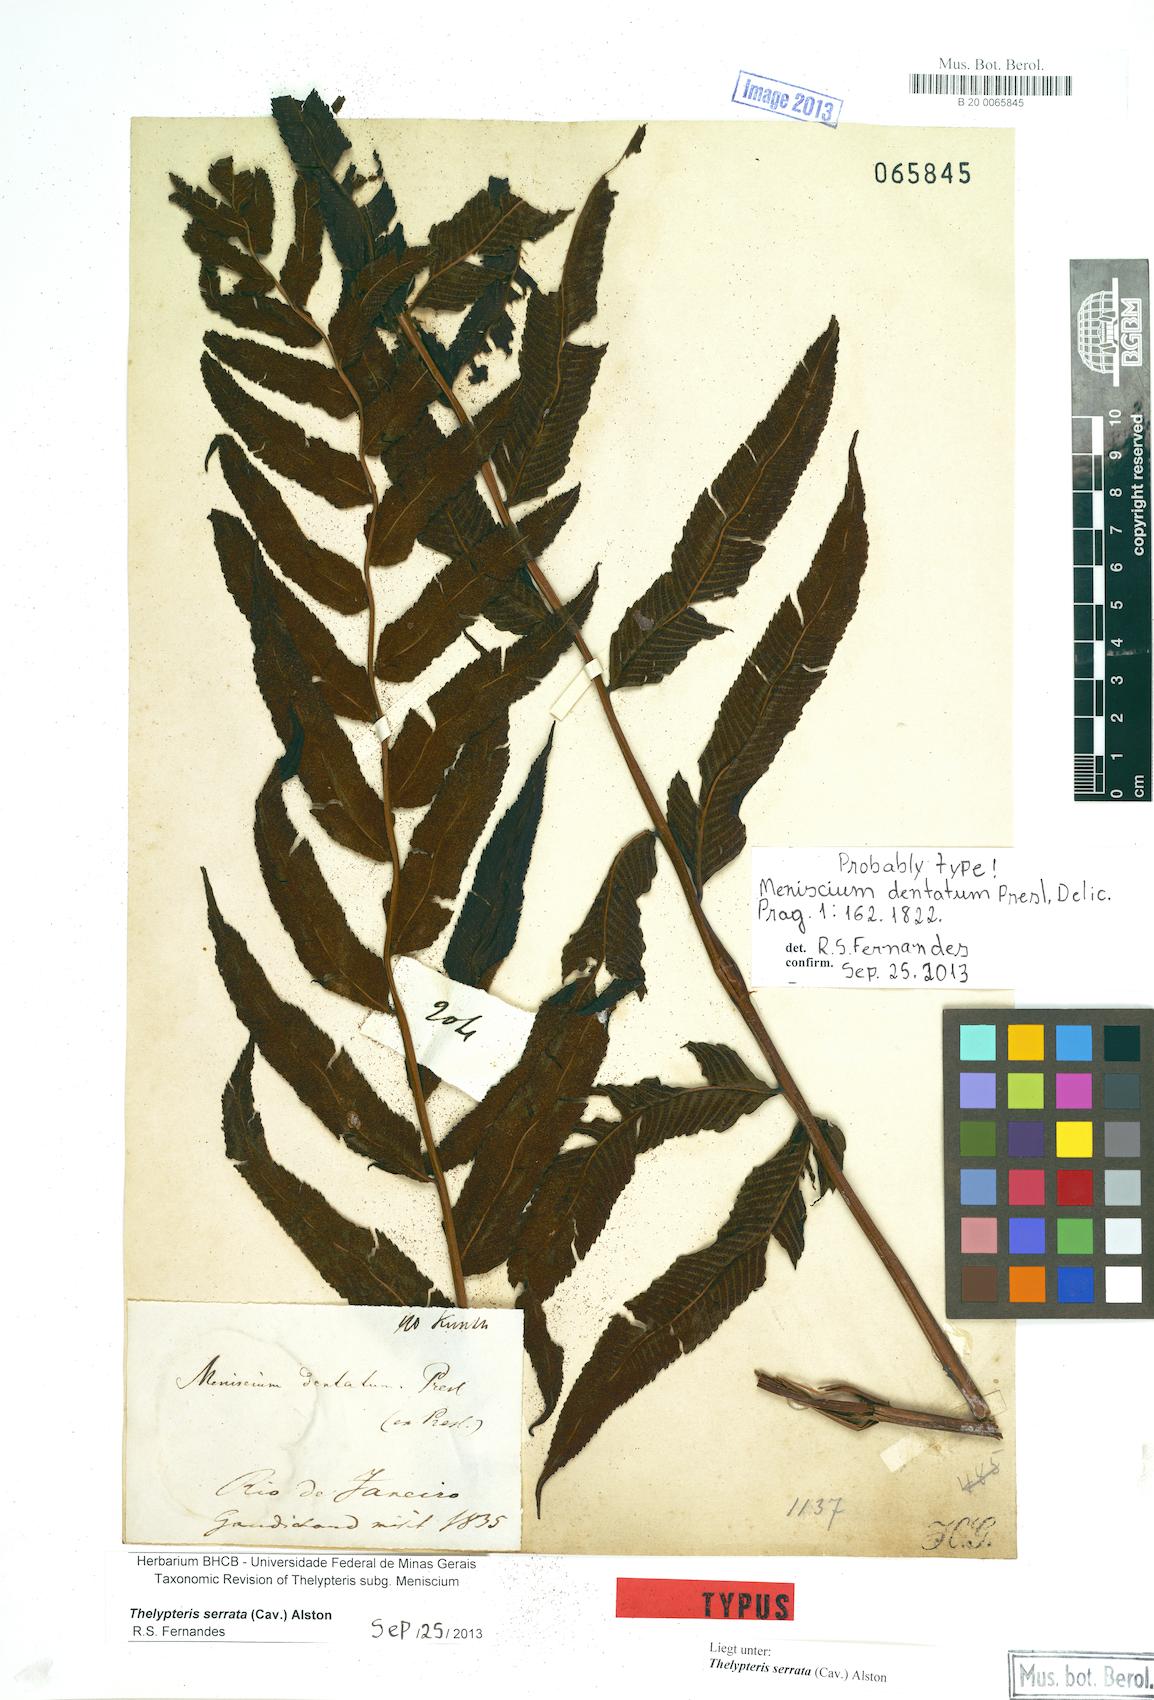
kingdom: Plantae
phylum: Tracheophyta
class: Polypodiopsida
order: Polypodiales
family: Thelypteridaceae
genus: Meniscium
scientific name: Meniscium serratum
